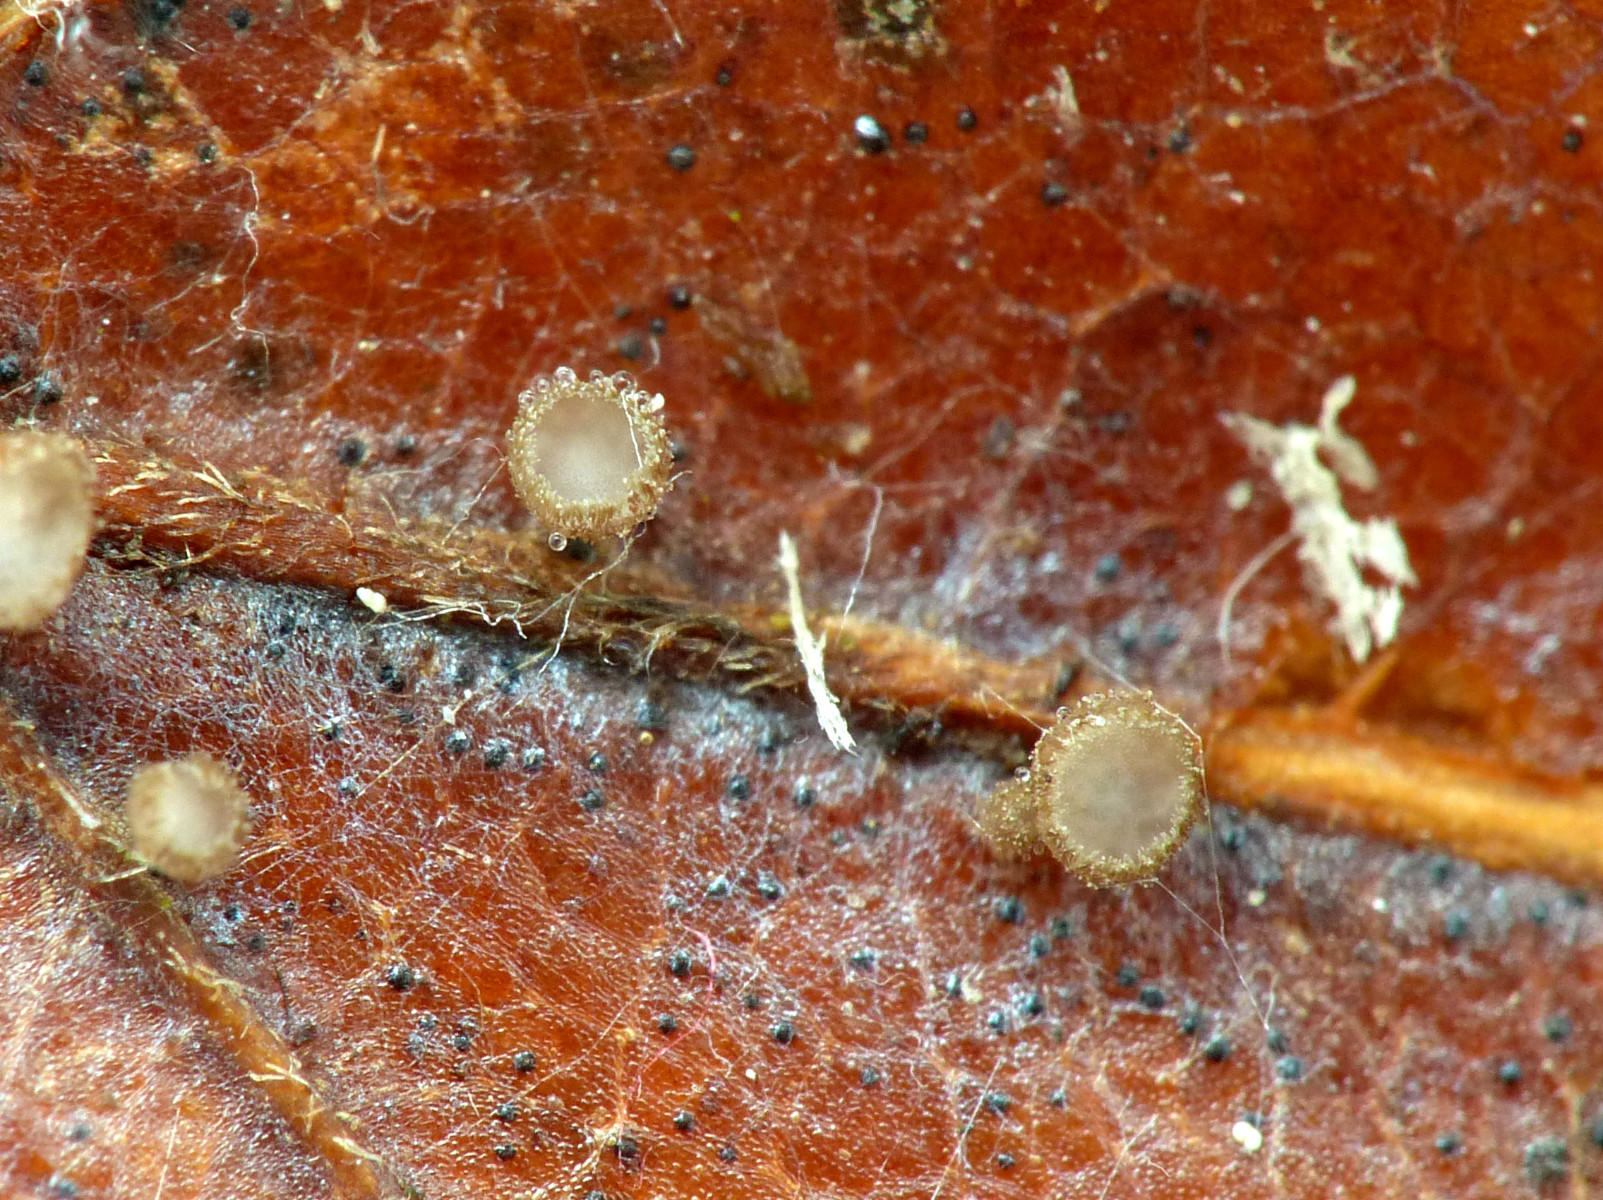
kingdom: Fungi
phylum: Ascomycota
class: Leotiomycetes
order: Helotiales
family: Lachnaceae
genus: Brunnipila
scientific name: Brunnipila fuscescens
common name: bøge-frynseskive
